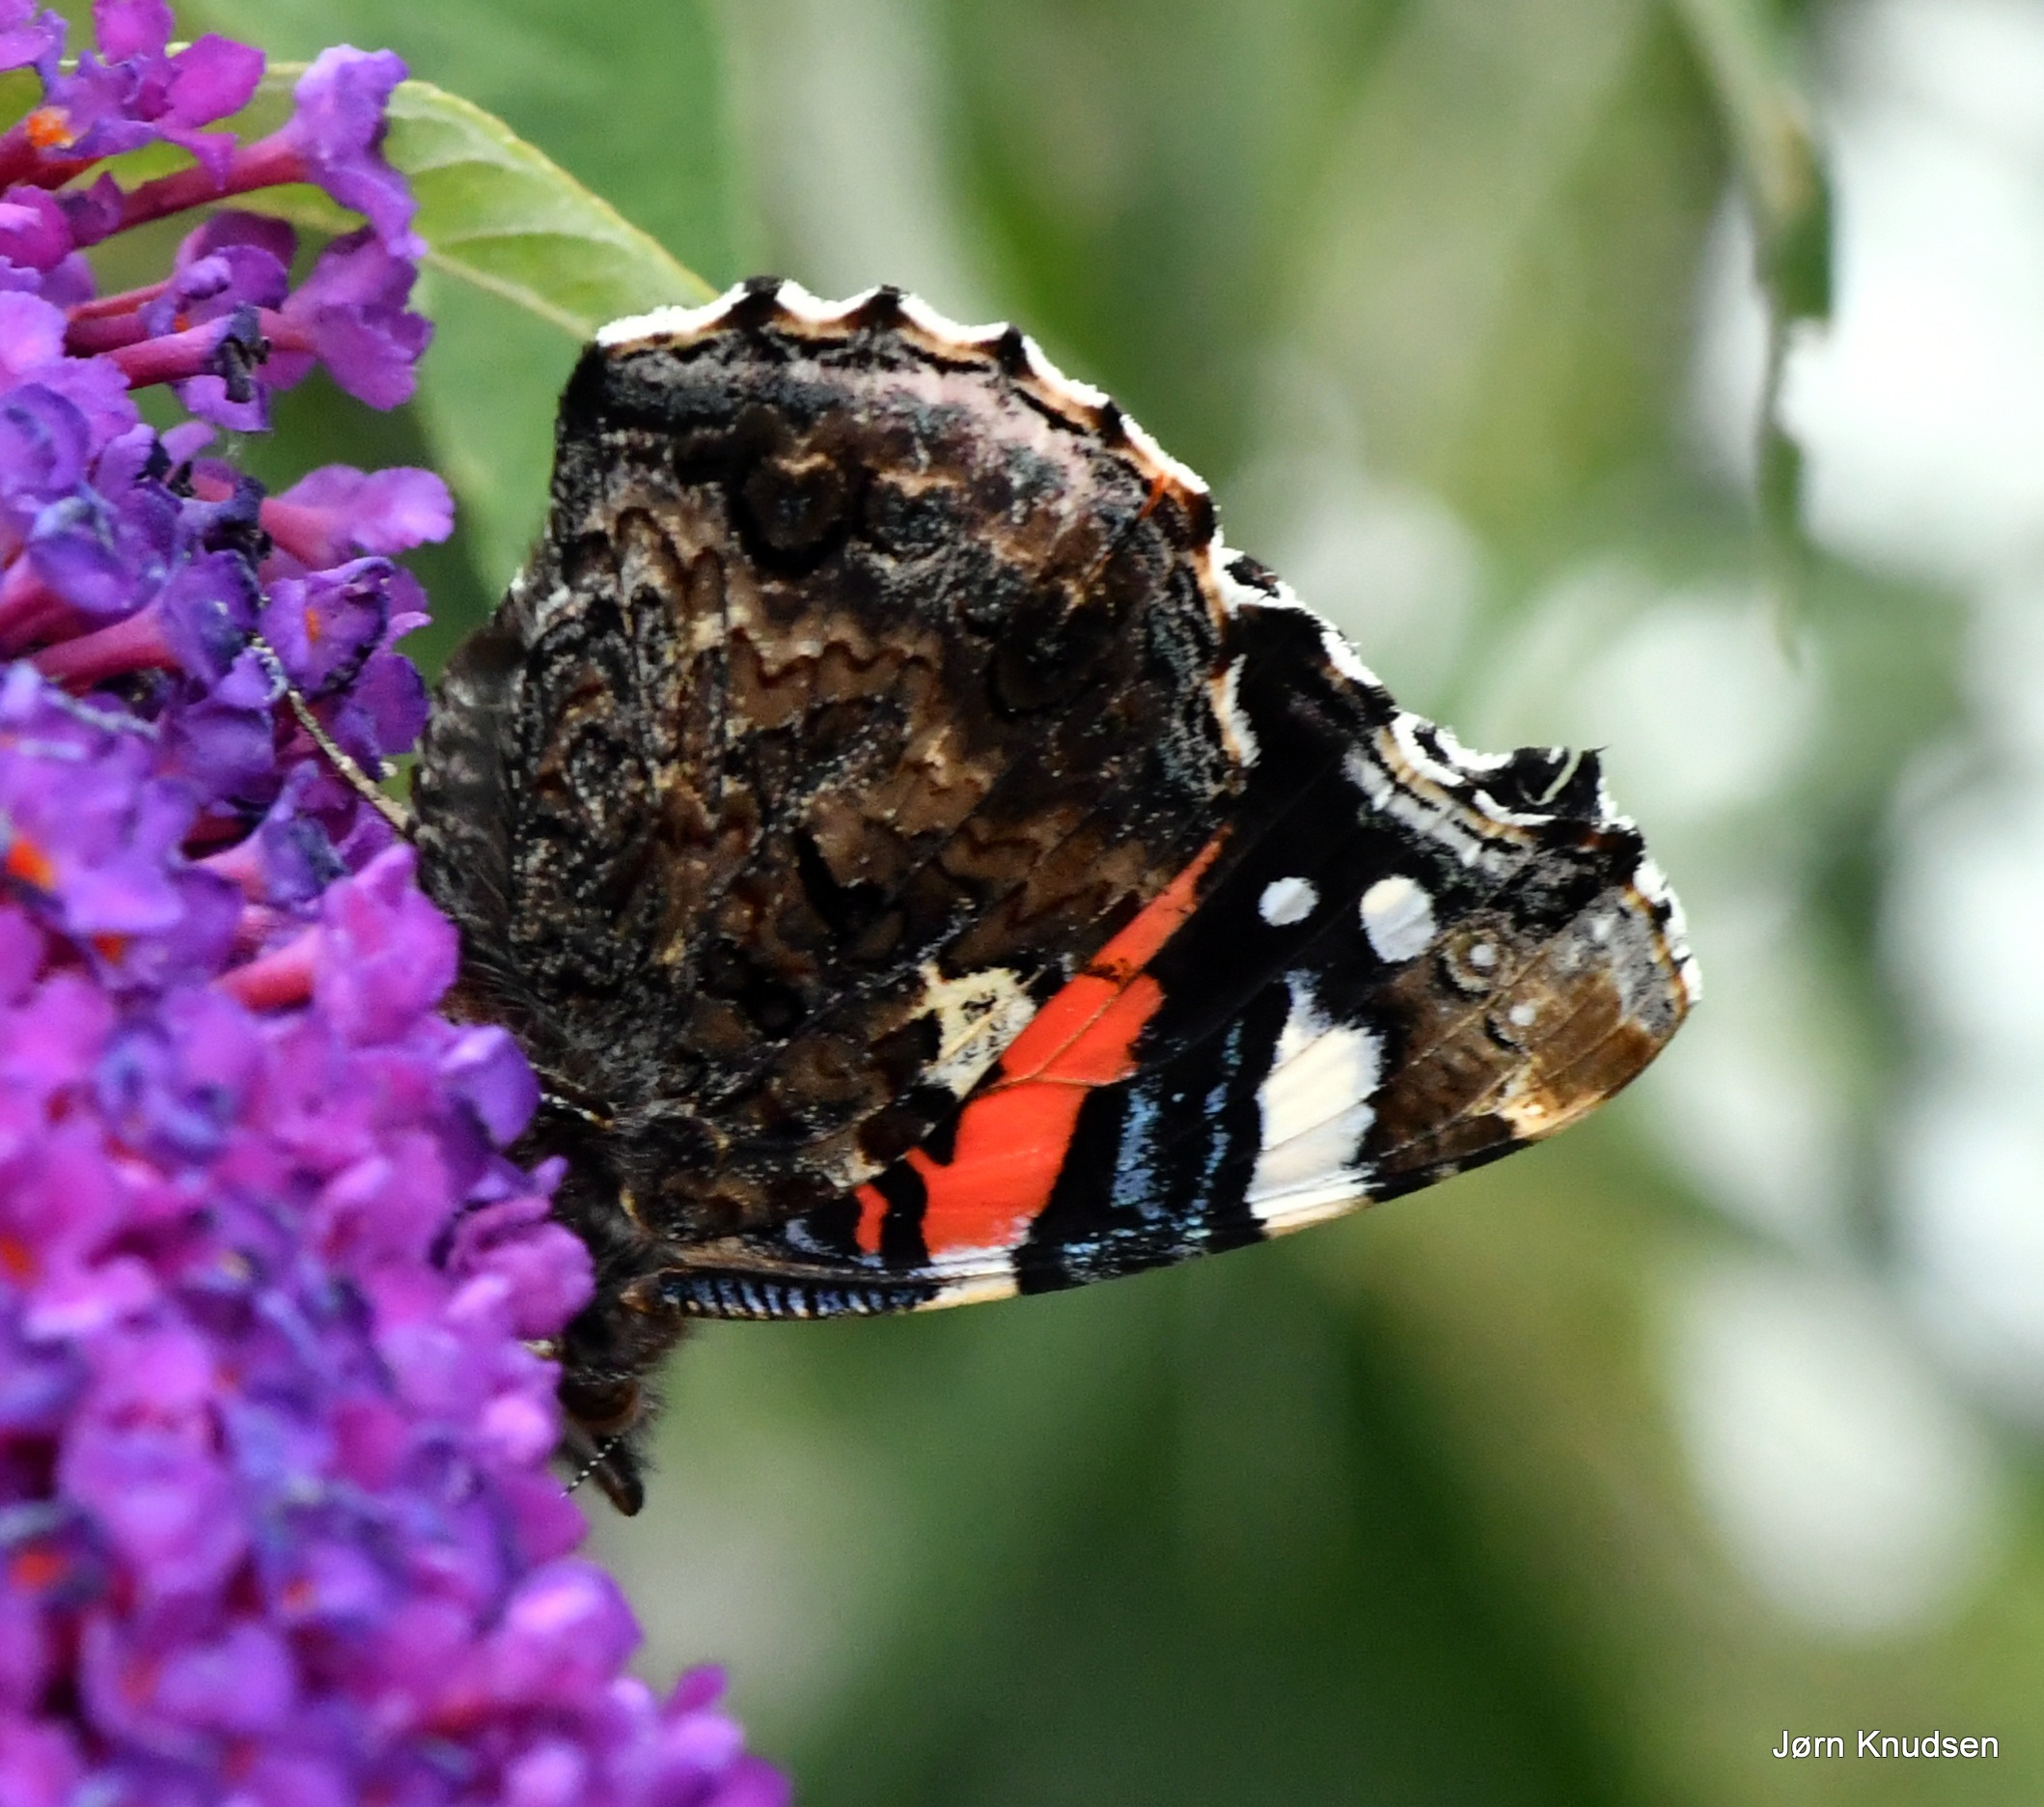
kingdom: Animalia
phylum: Arthropoda
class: Insecta
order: Lepidoptera
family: Nymphalidae
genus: Vanessa
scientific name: Vanessa atalanta
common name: Admiral
